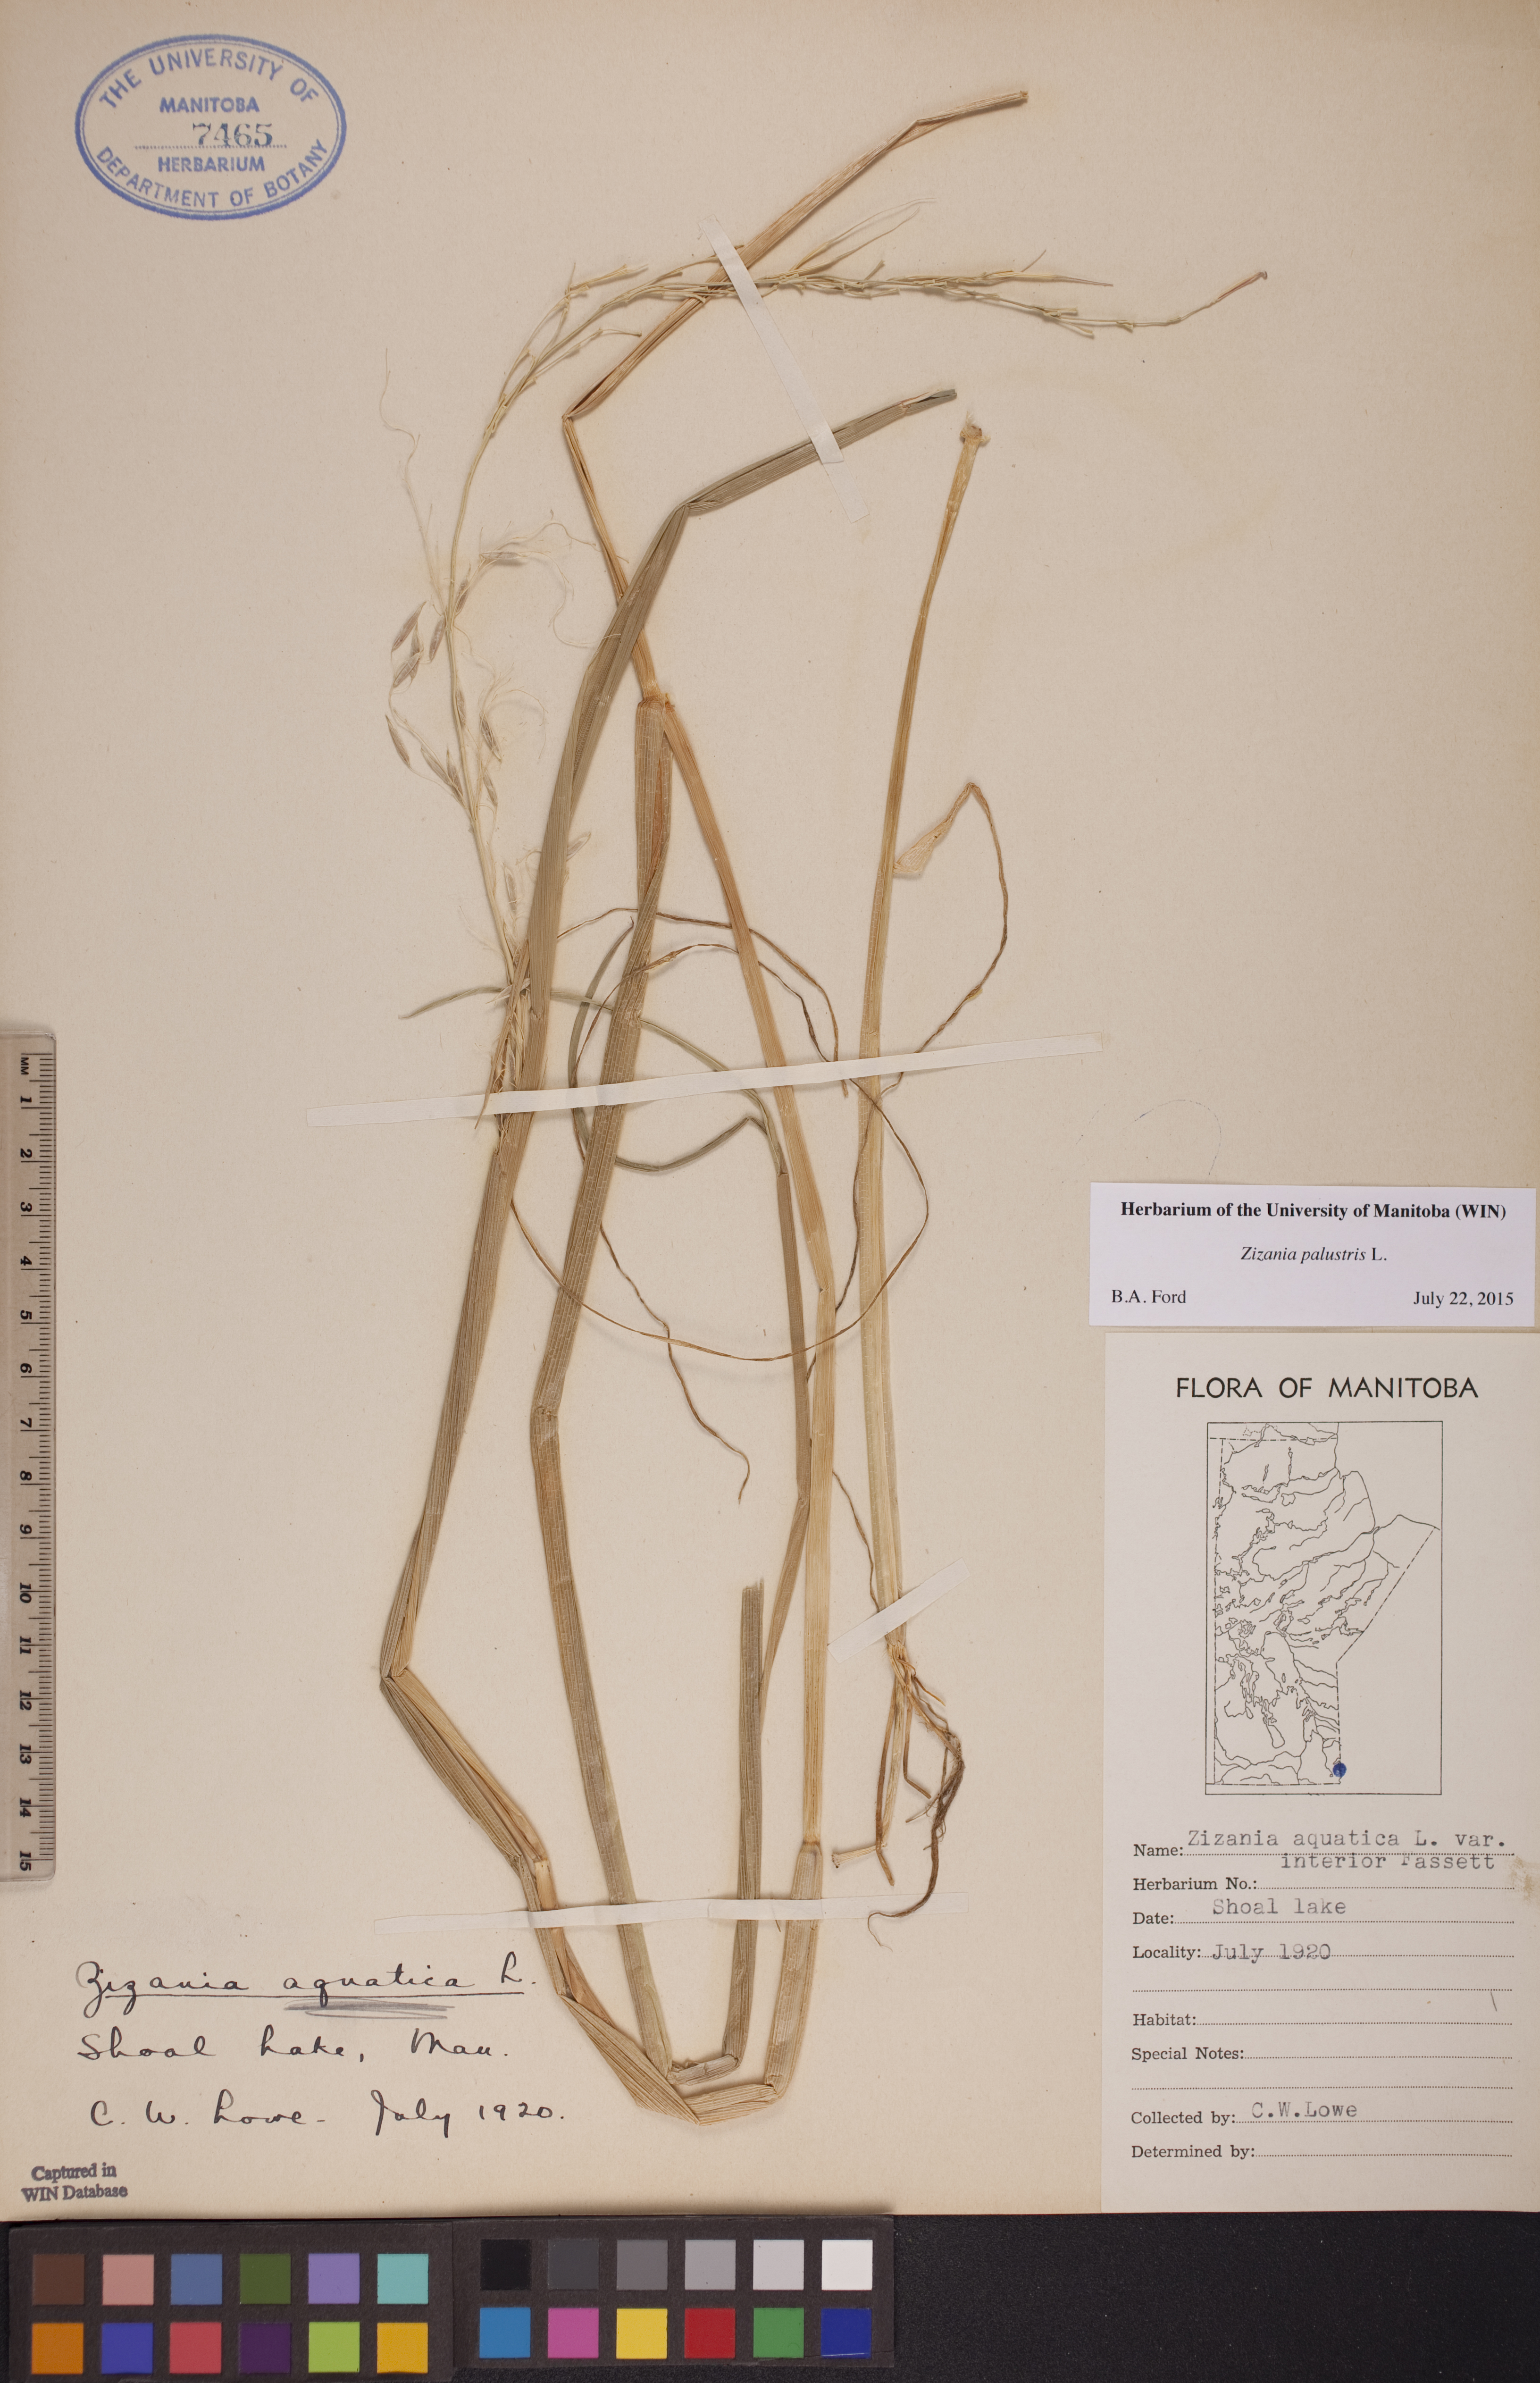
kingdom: Plantae
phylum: Tracheophyta
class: Liliopsida
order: Poales
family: Poaceae
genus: Zizania
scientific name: Zizania palustris
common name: Northern wild rice
